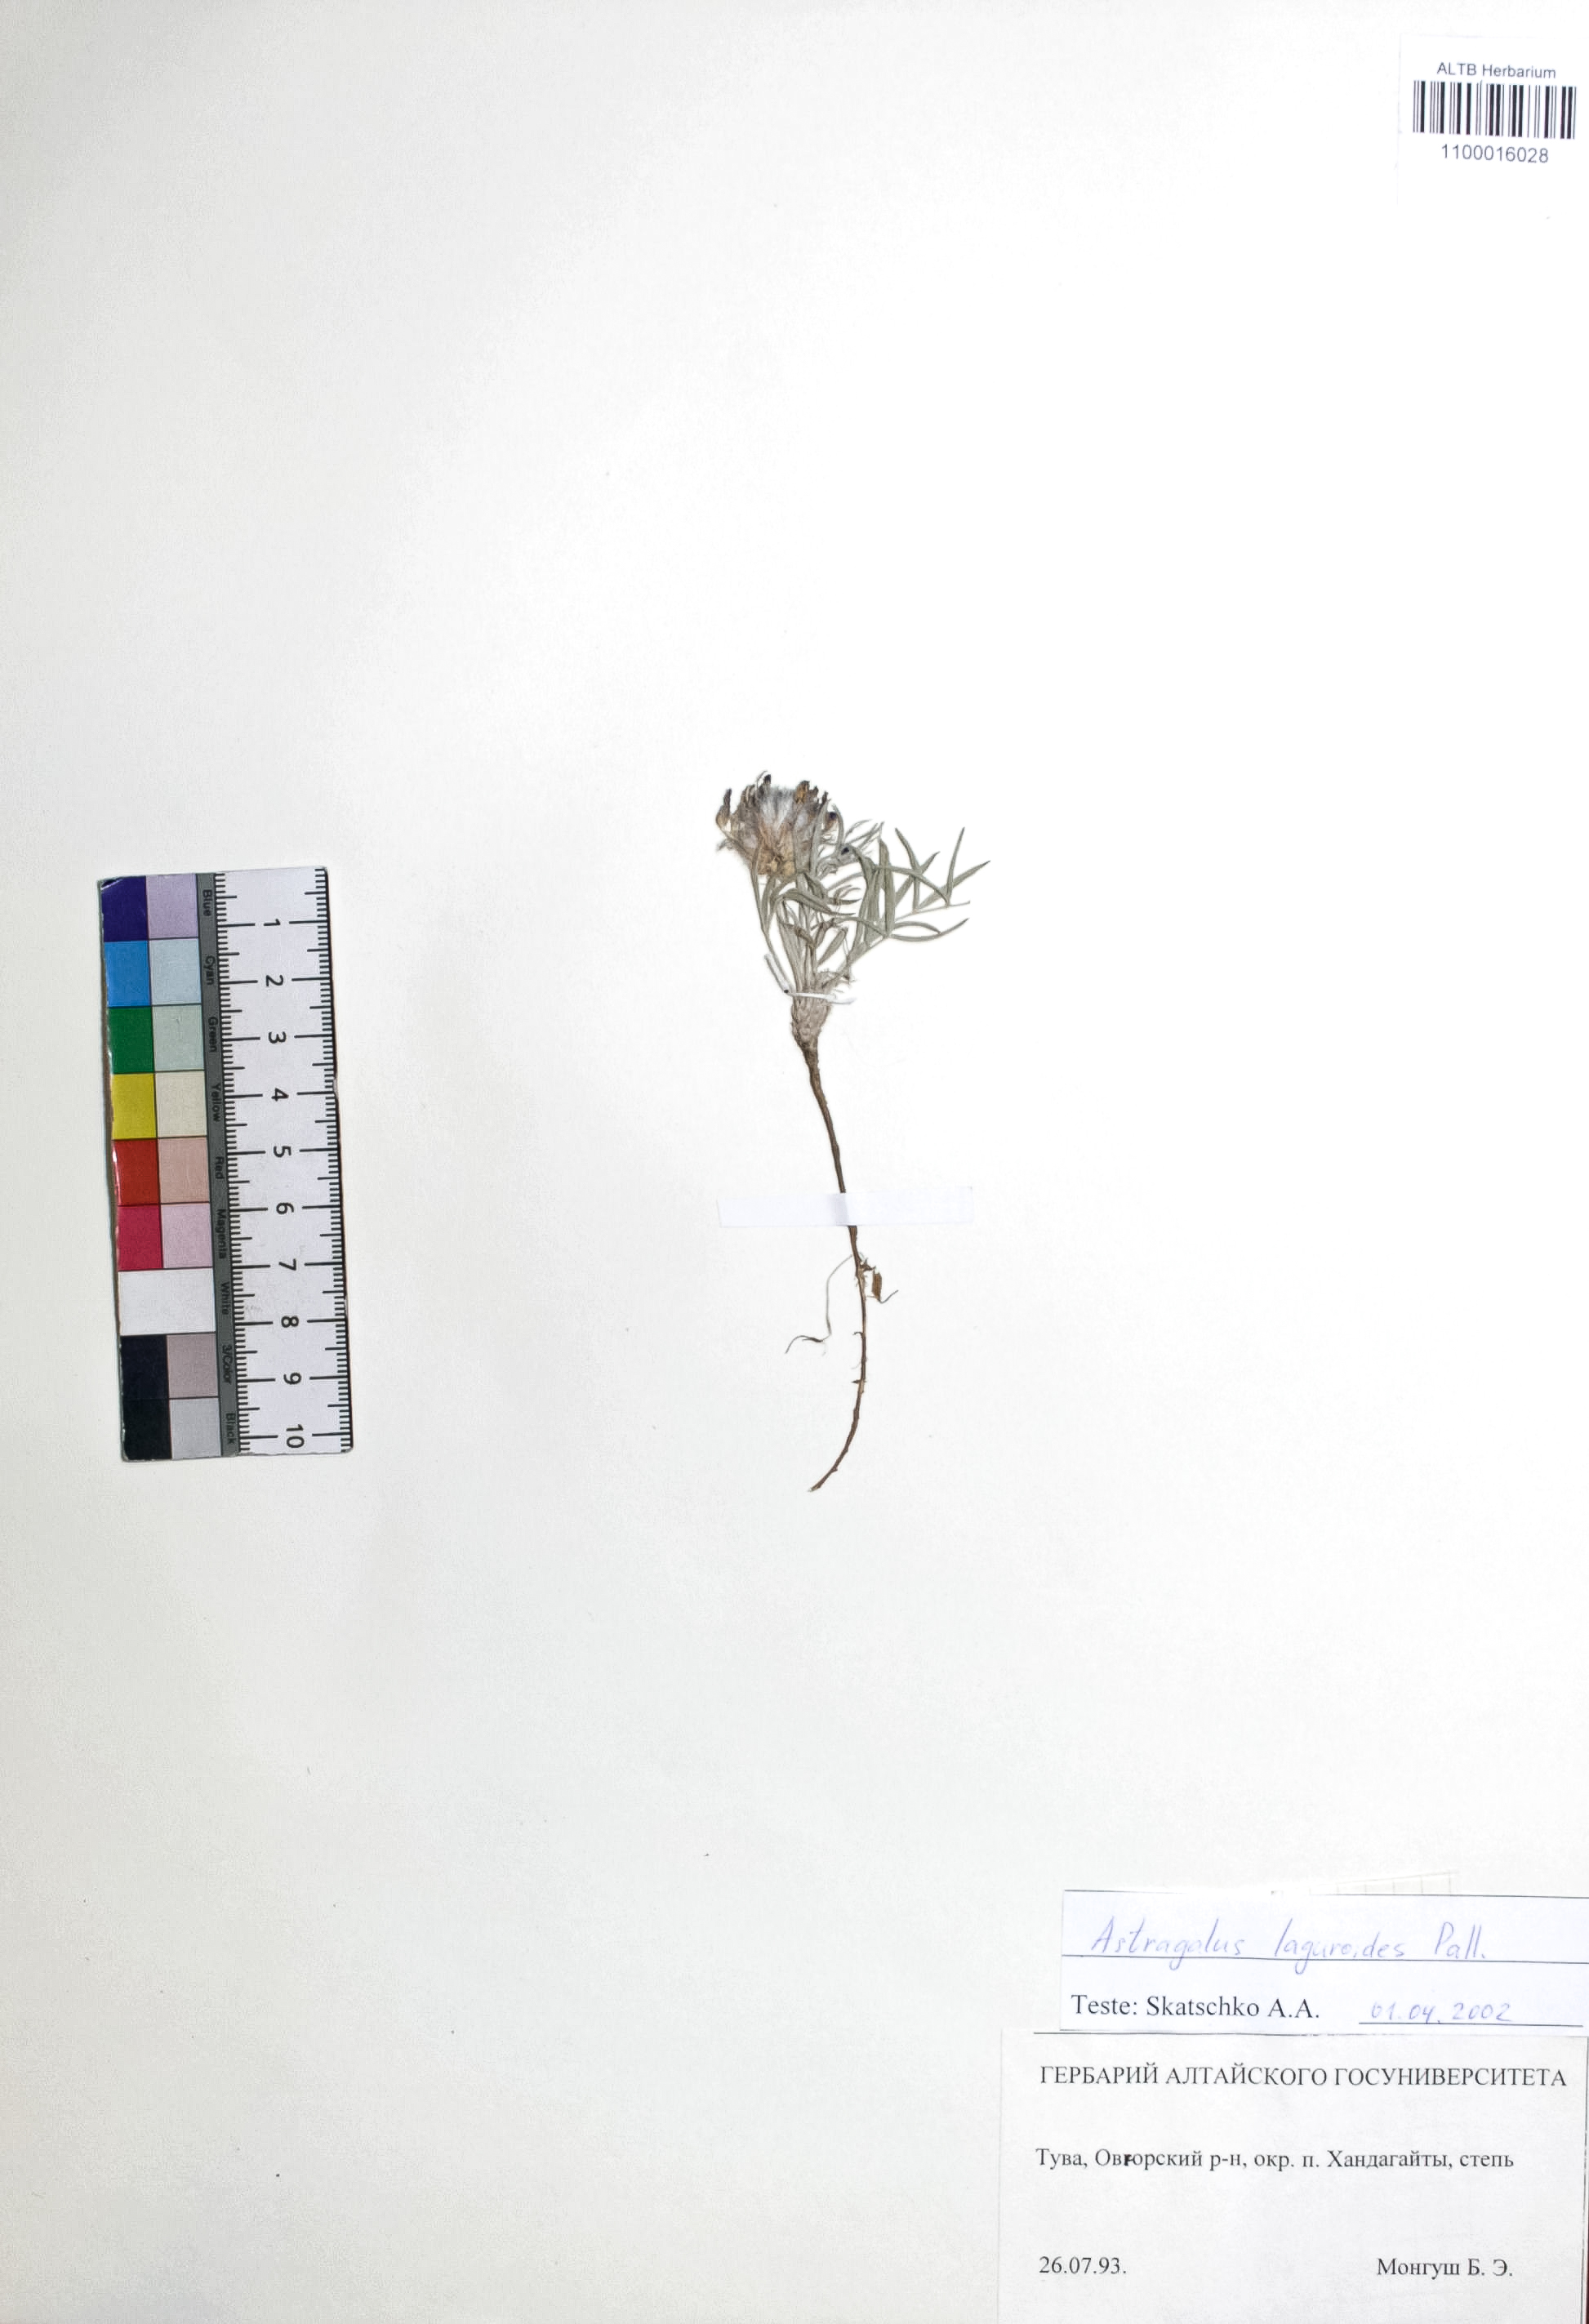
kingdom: Plantae
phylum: Tracheophyta
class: Magnoliopsida
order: Fabales
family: Fabaceae
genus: Astragalus
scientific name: Astragalus laguroides
